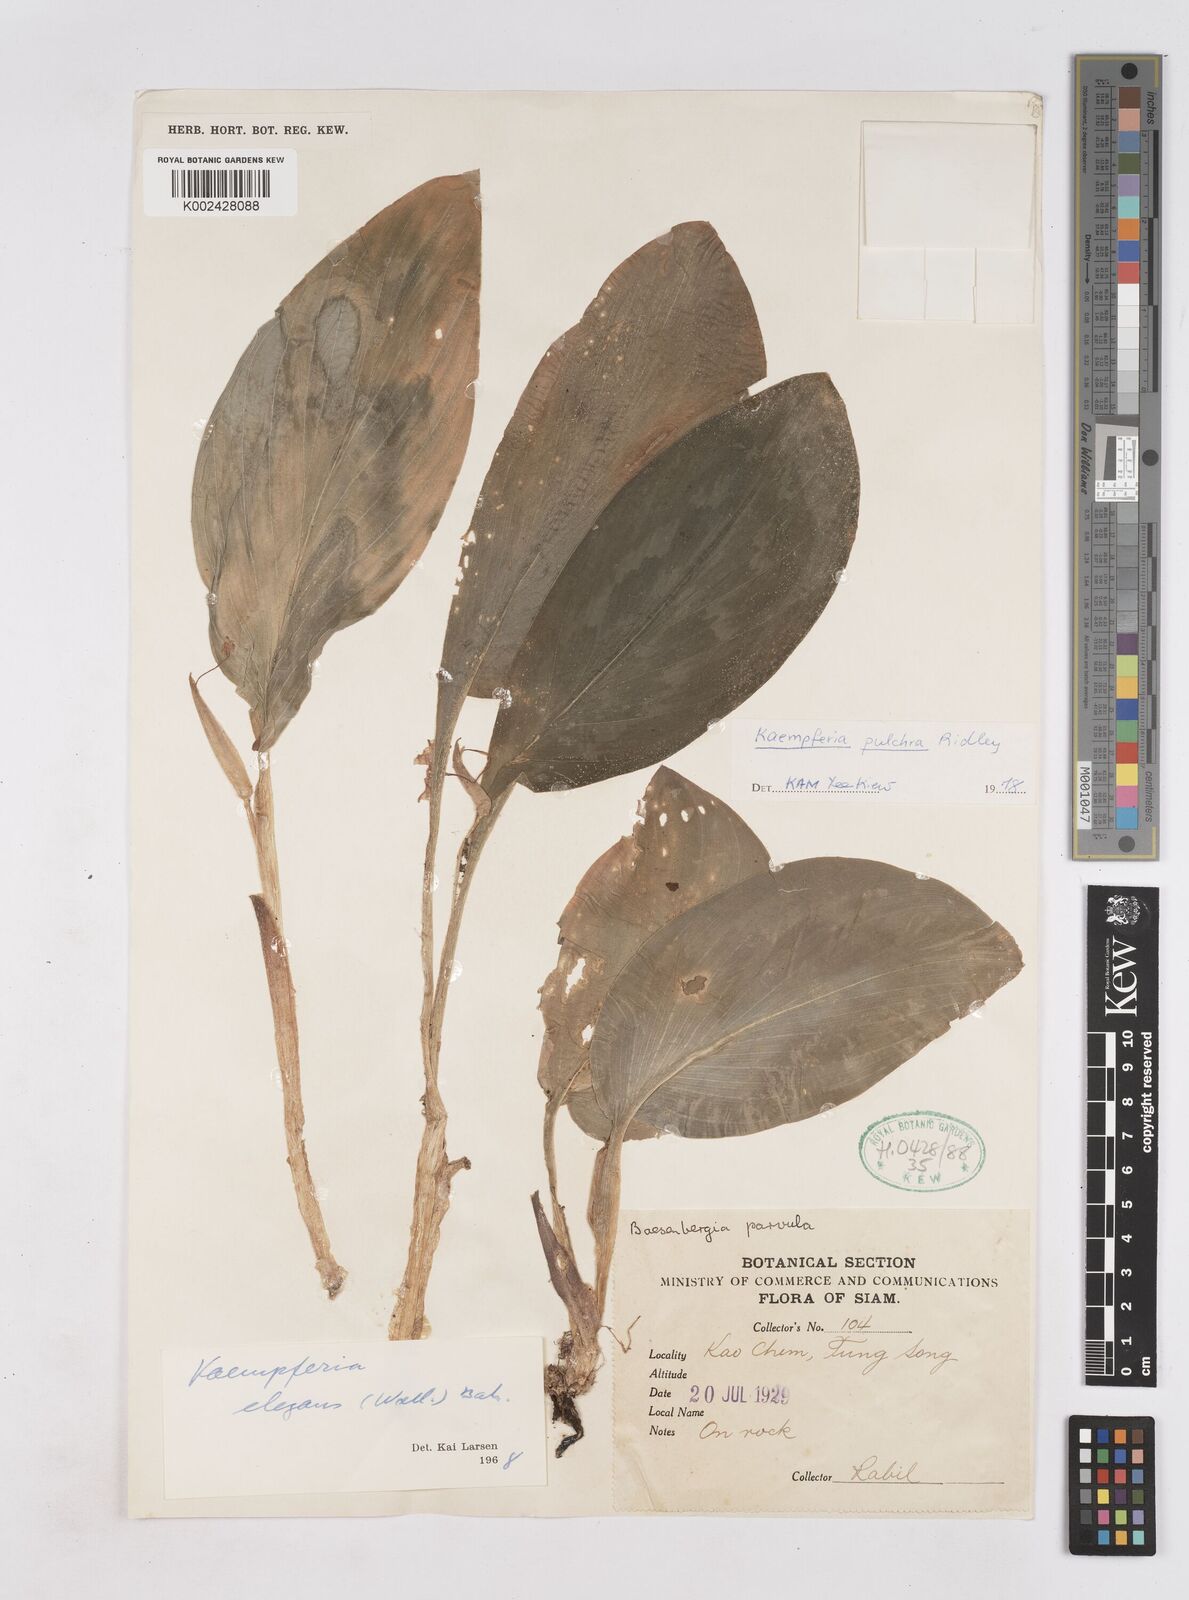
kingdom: Plantae
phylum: Tracheophyta
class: Liliopsida
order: Zingiberales
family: Zingiberaceae
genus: Kaempferia
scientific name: Kaempferia elegans
